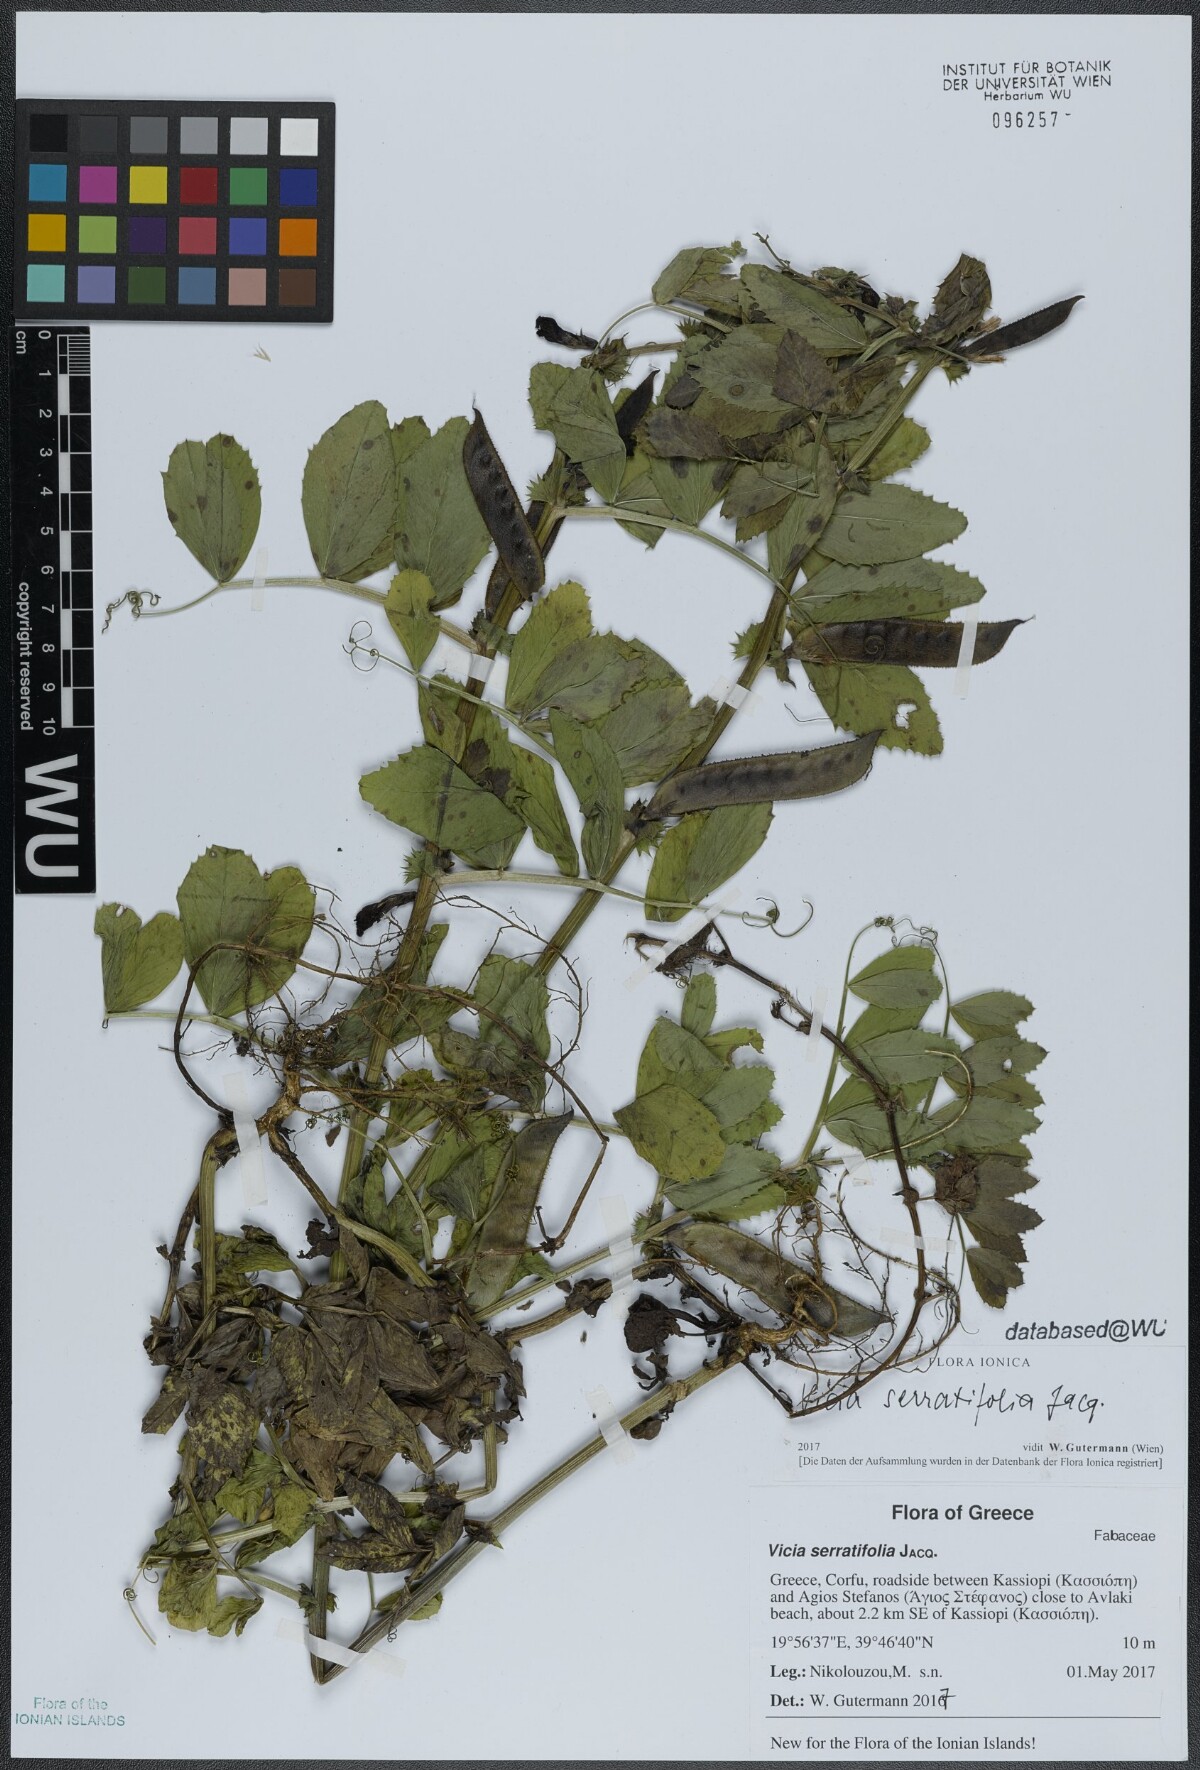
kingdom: Plantae
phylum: Tracheophyta
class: Magnoliopsida
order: Fabales
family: Fabaceae
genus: Vicia
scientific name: Vicia serratifolia
